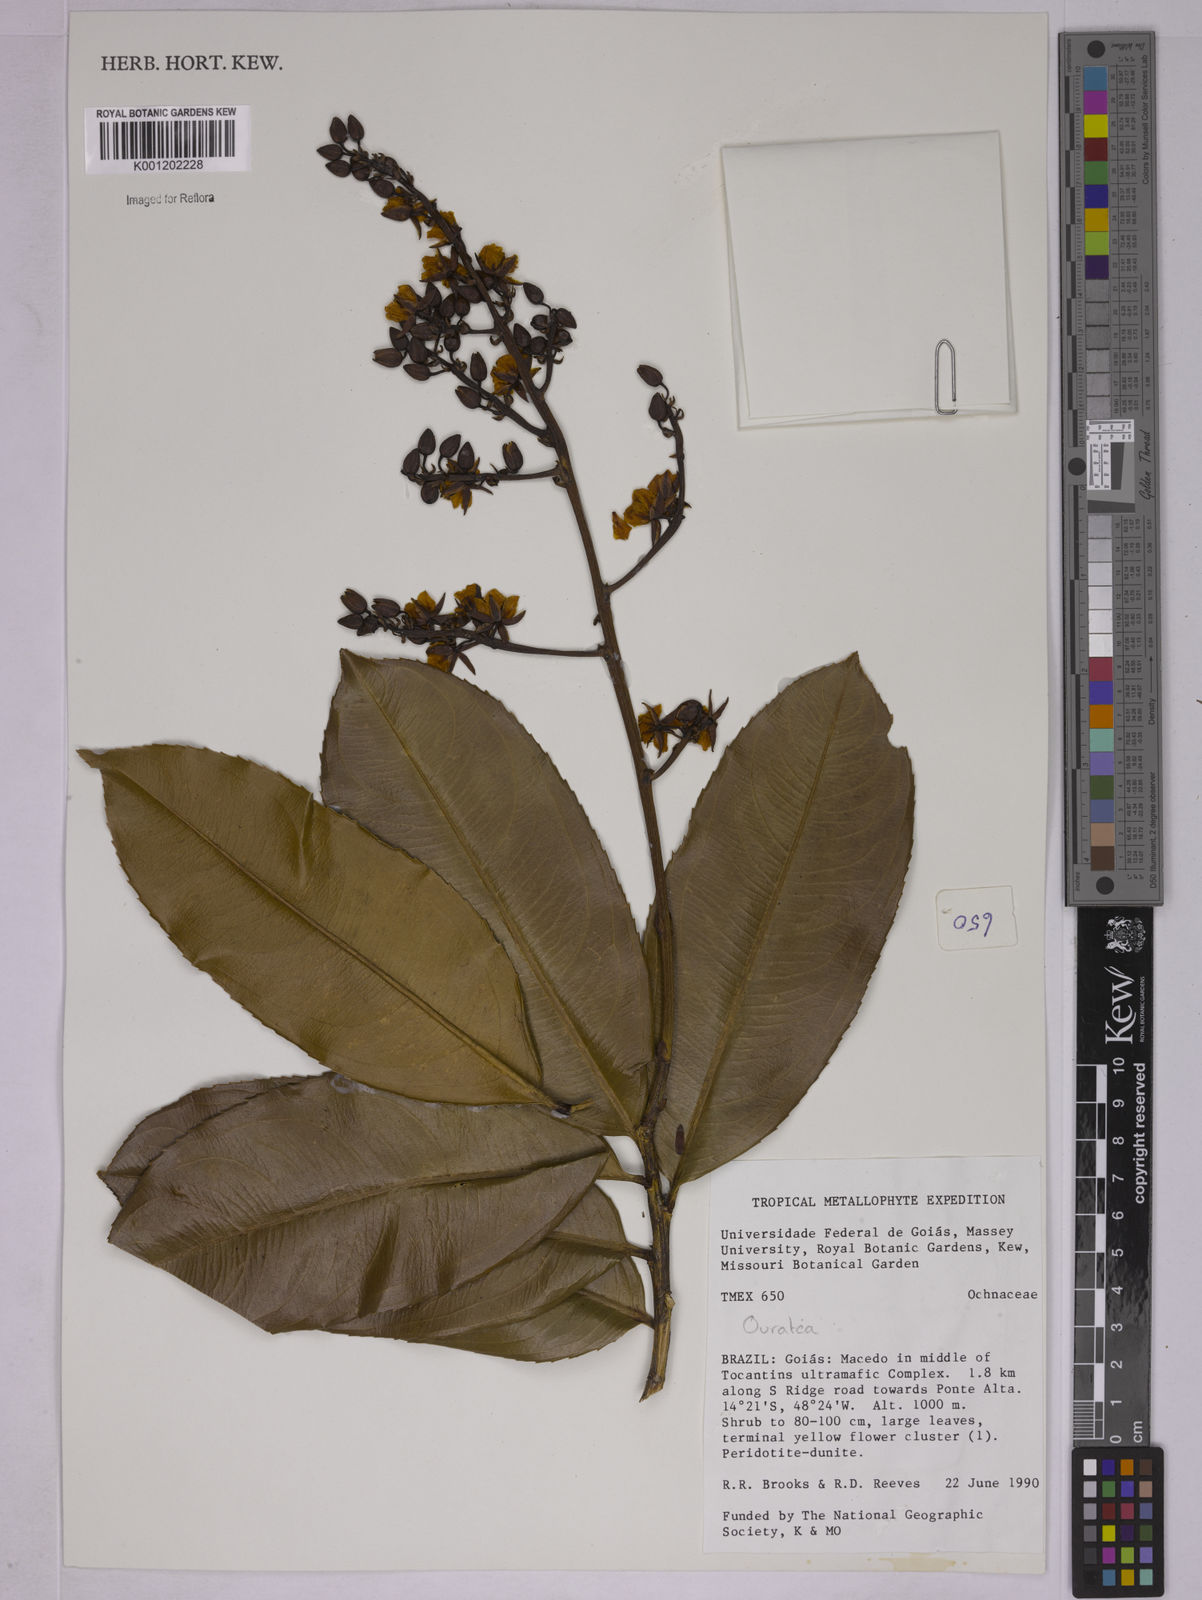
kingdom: Plantae
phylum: Tracheophyta
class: Magnoliopsida
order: Malpighiales
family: Ochnaceae
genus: Ouratea
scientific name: Ouratea
